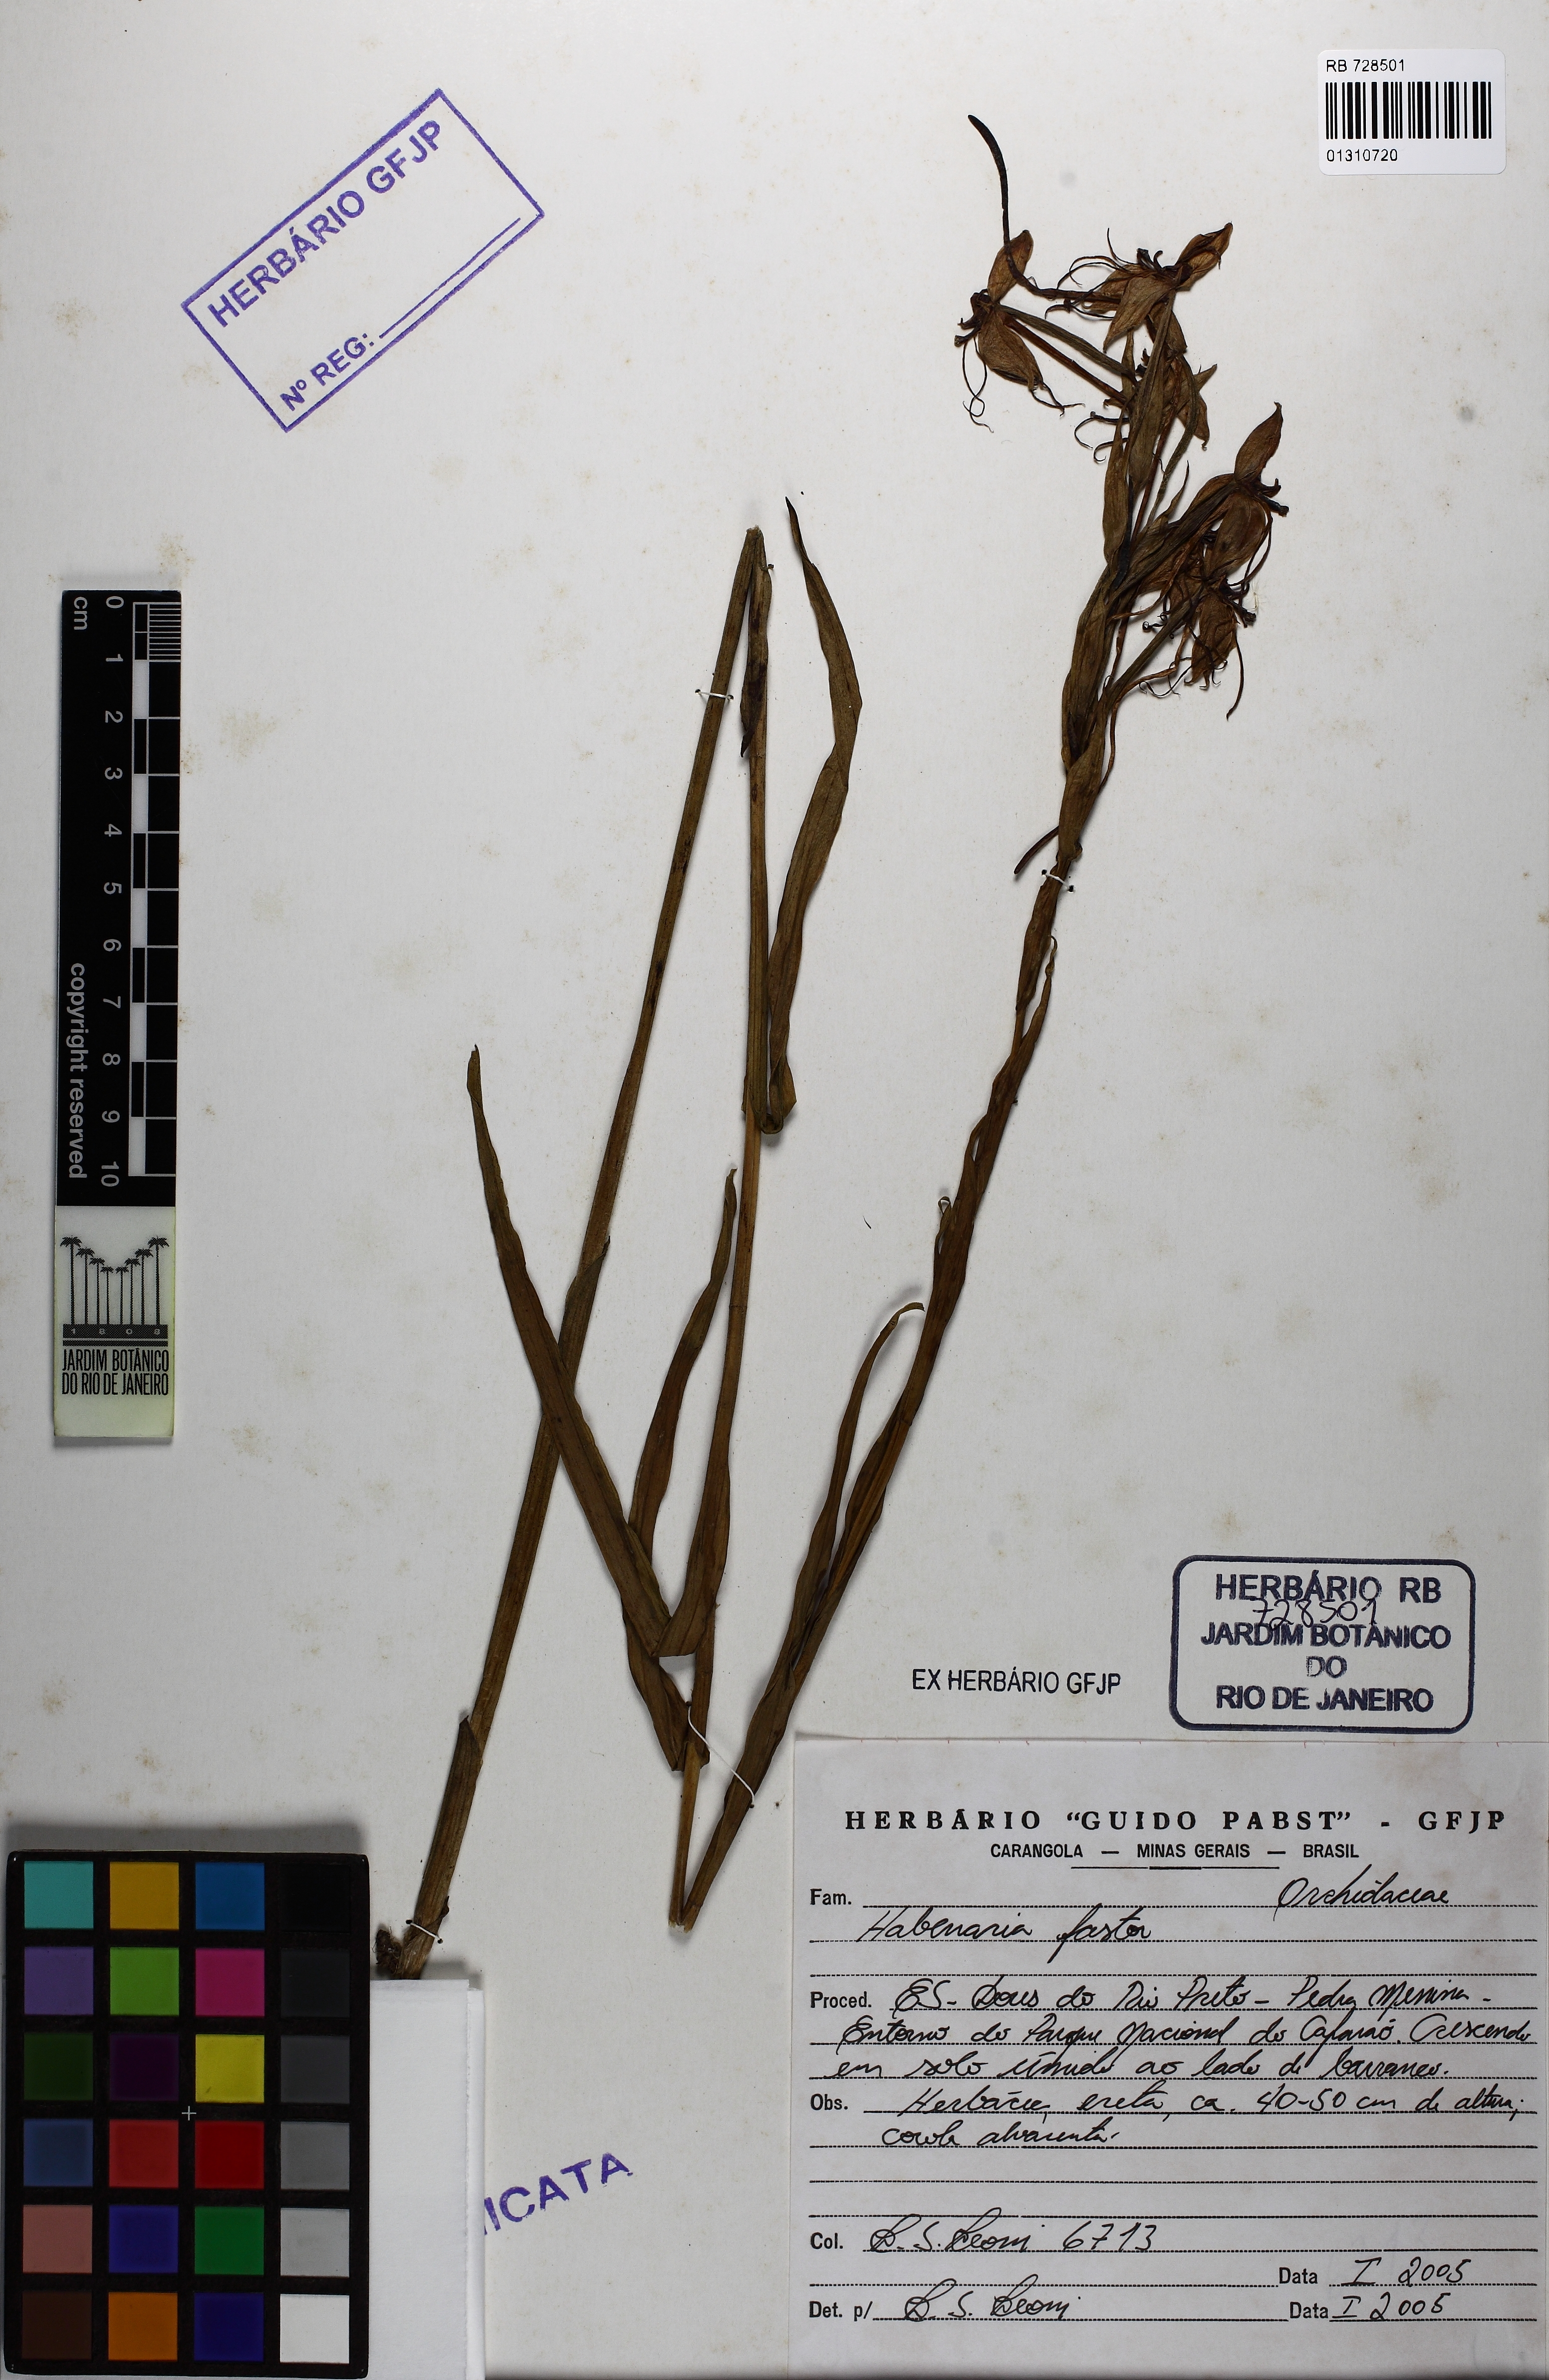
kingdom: Plantae
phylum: Tracheophyta
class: Liliopsida
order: Asparagales
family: Orchidaceae
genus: Habenaria
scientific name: Habenaria gourlieana
